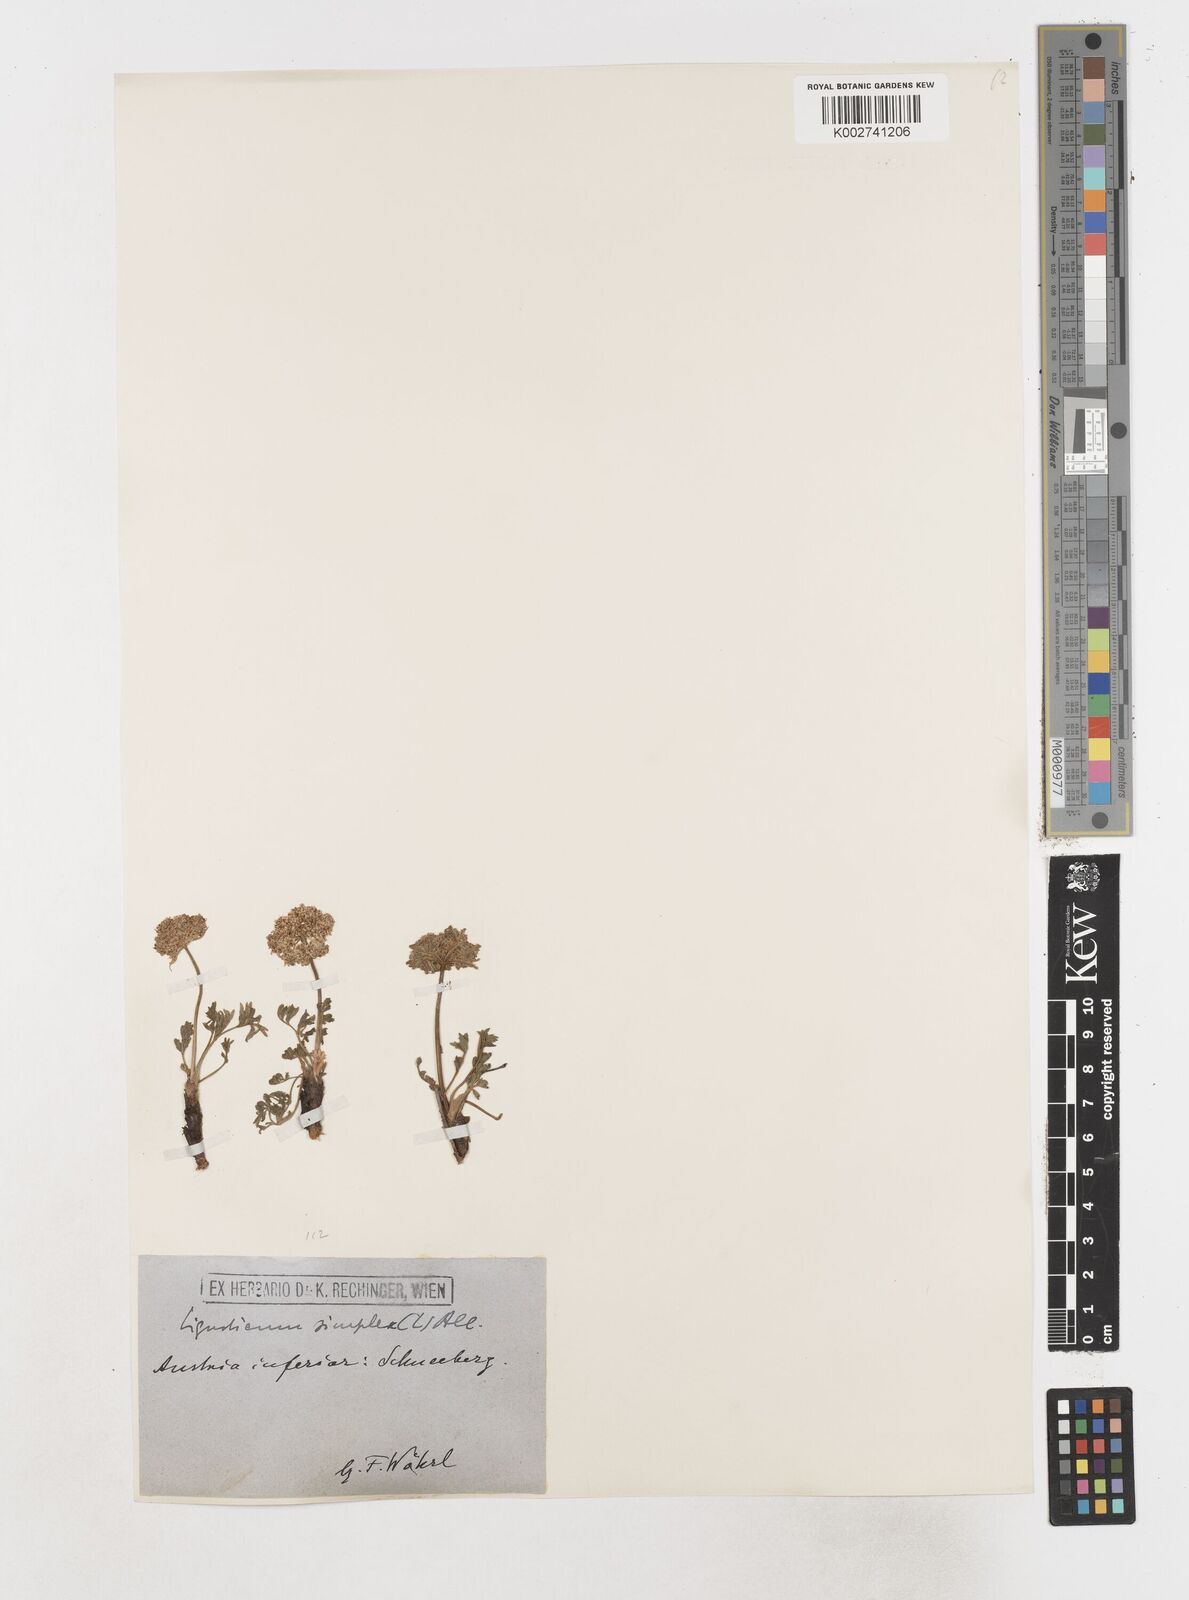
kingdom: Plantae
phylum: Tracheophyta
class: Magnoliopsida
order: Apiales
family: Apiaceae
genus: Pachypleurum
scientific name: Pachypleurum mutellinoides
